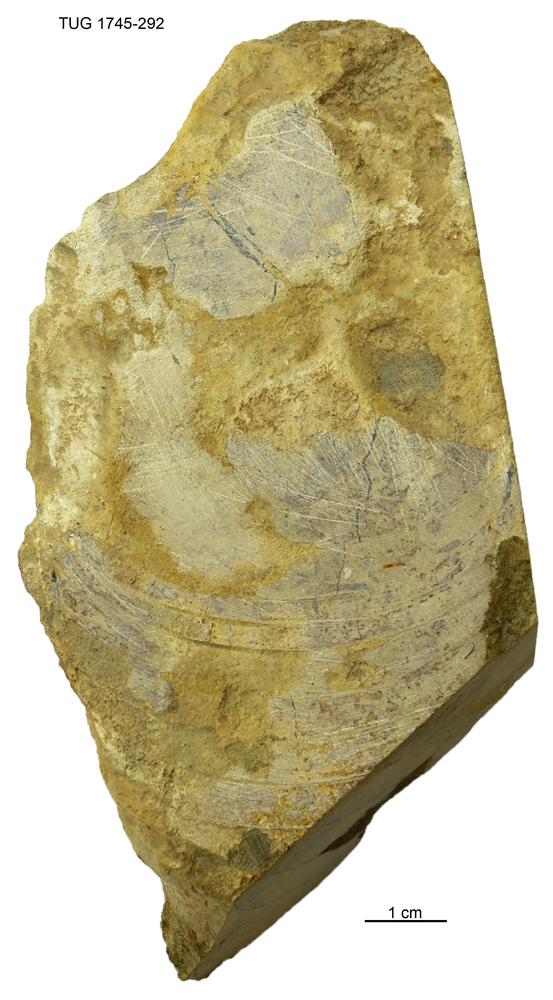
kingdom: Animalia
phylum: Mollusca
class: Cephalopoda
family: Phragmoceratidae
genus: Phragmoceras
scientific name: Phragmoceras
